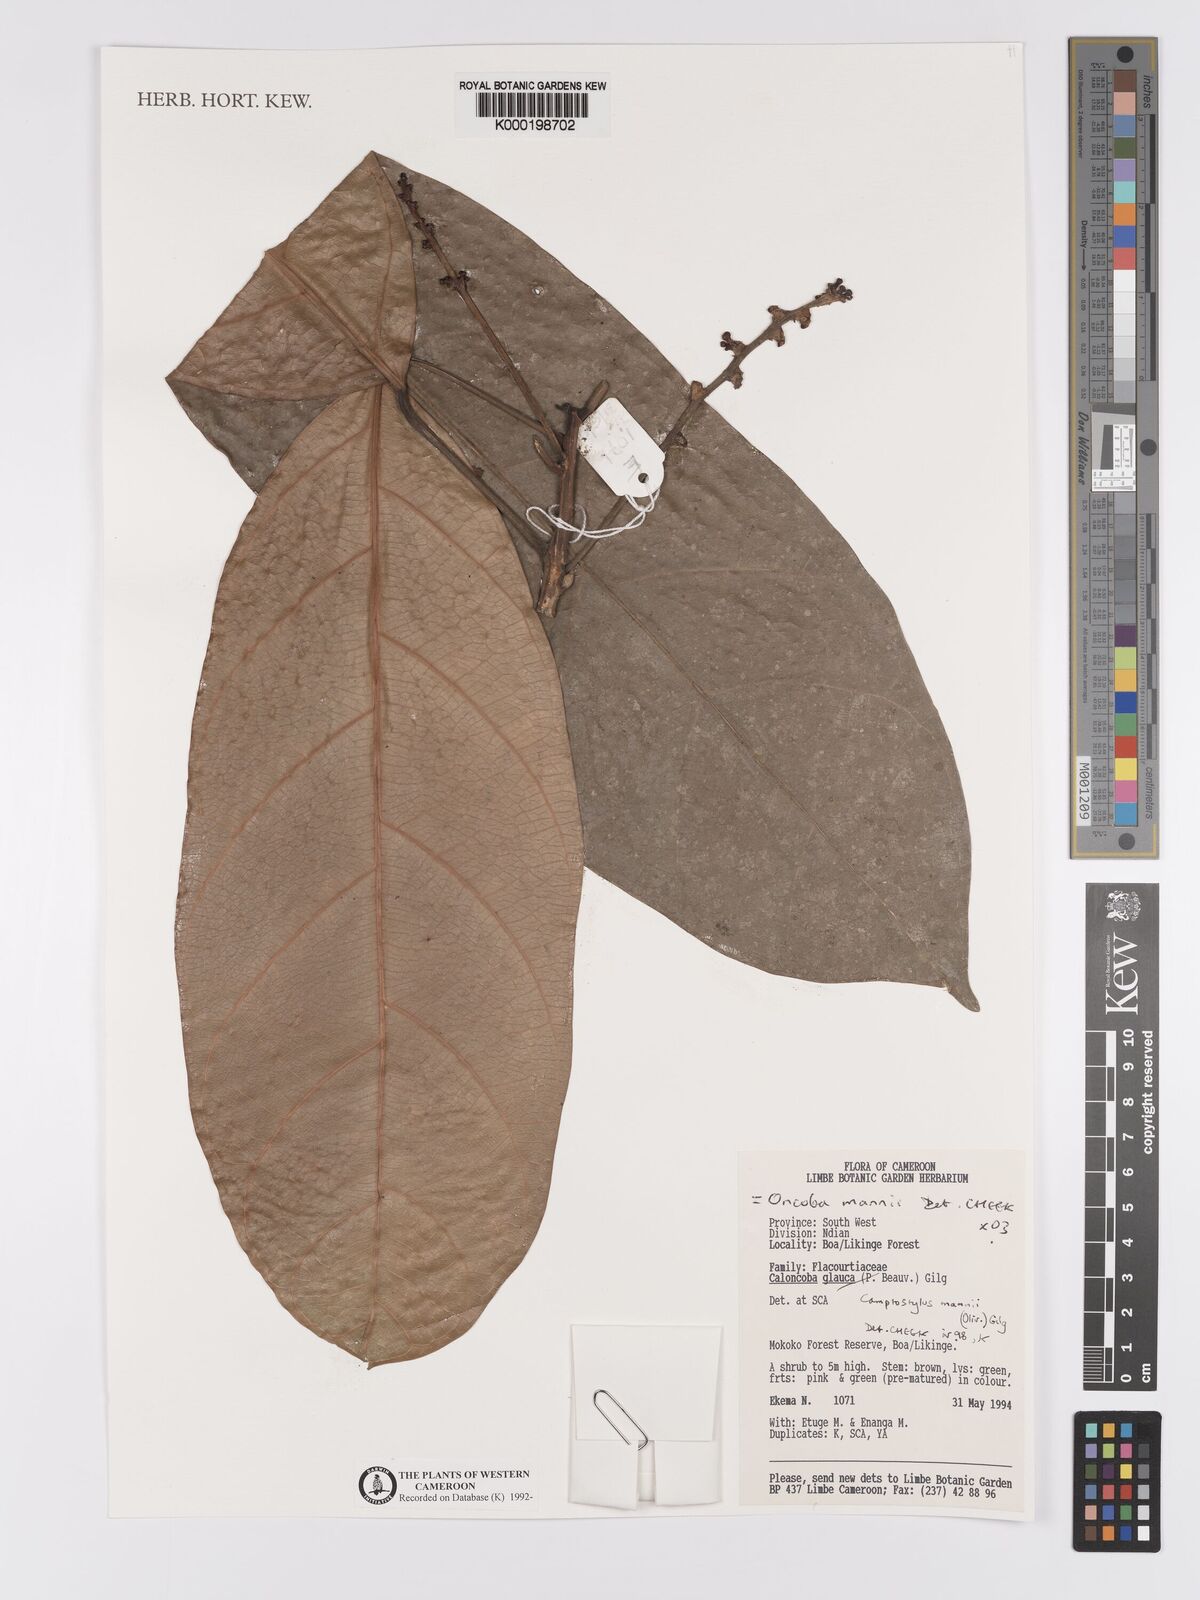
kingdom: Plantae
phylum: Tracheophyta
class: Magnoliopsida
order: Malpighiales
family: Achariaceae
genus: Camptostylus
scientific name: Camptostylus mannii
